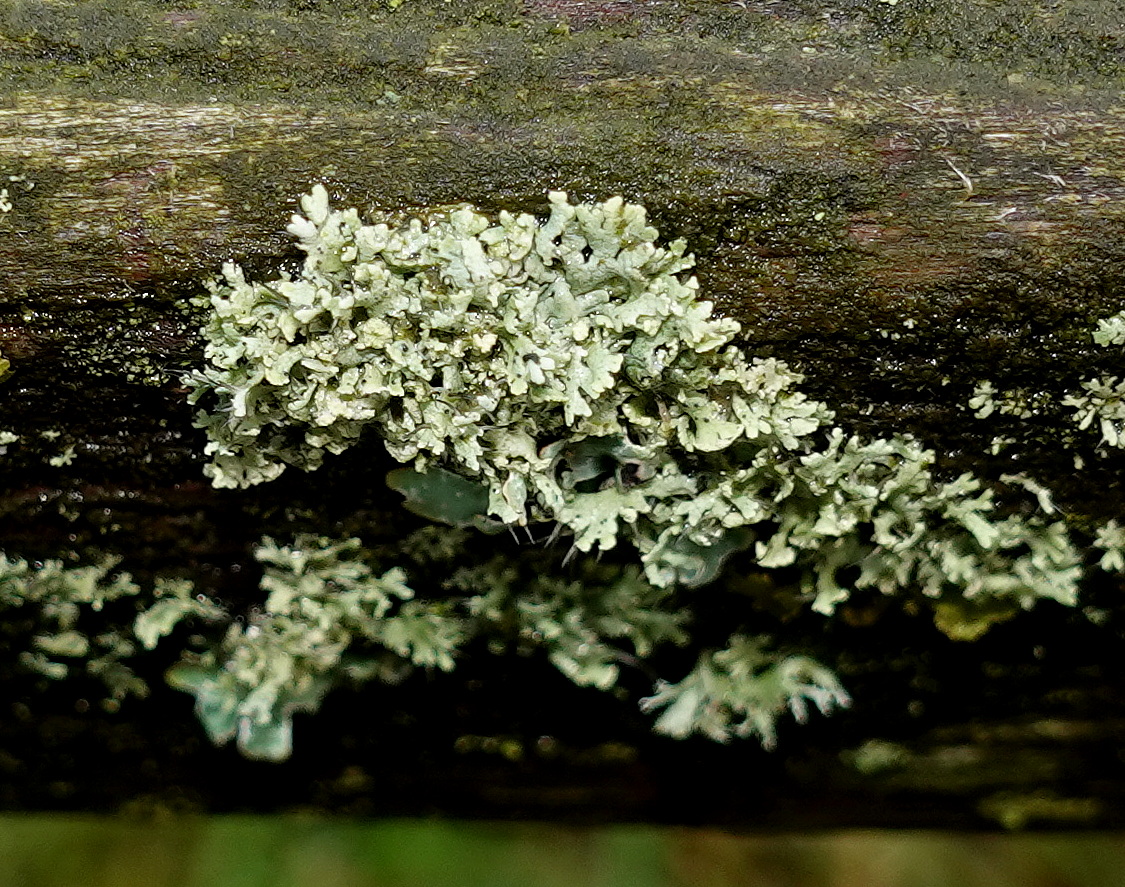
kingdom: Fungi
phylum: Ascomycota
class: Lecanoromycetes
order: Caliciales
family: Physciaceae
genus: Physcia
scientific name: Physcia tenella
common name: spæd rosetlav
